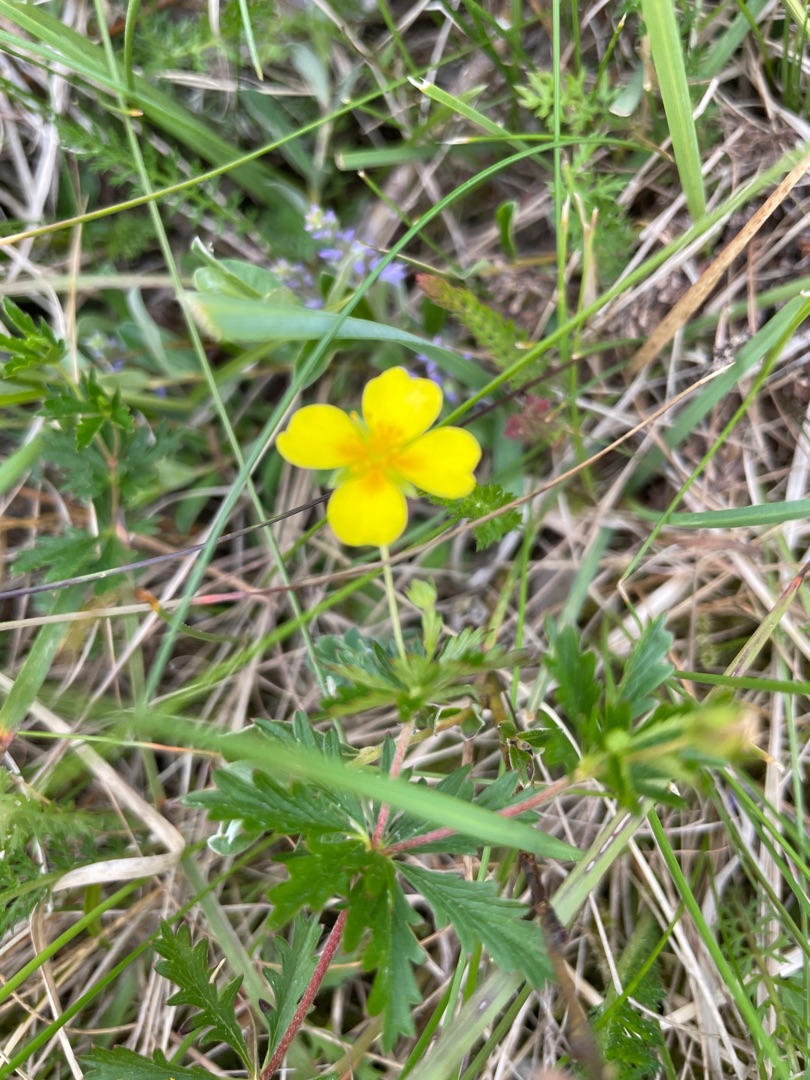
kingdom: Plantae
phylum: Tracheophyta
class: Magnoliopsida
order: Rosales
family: Rosaceae
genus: Potentilla
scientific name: Potentilla erecta
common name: Tormentil
